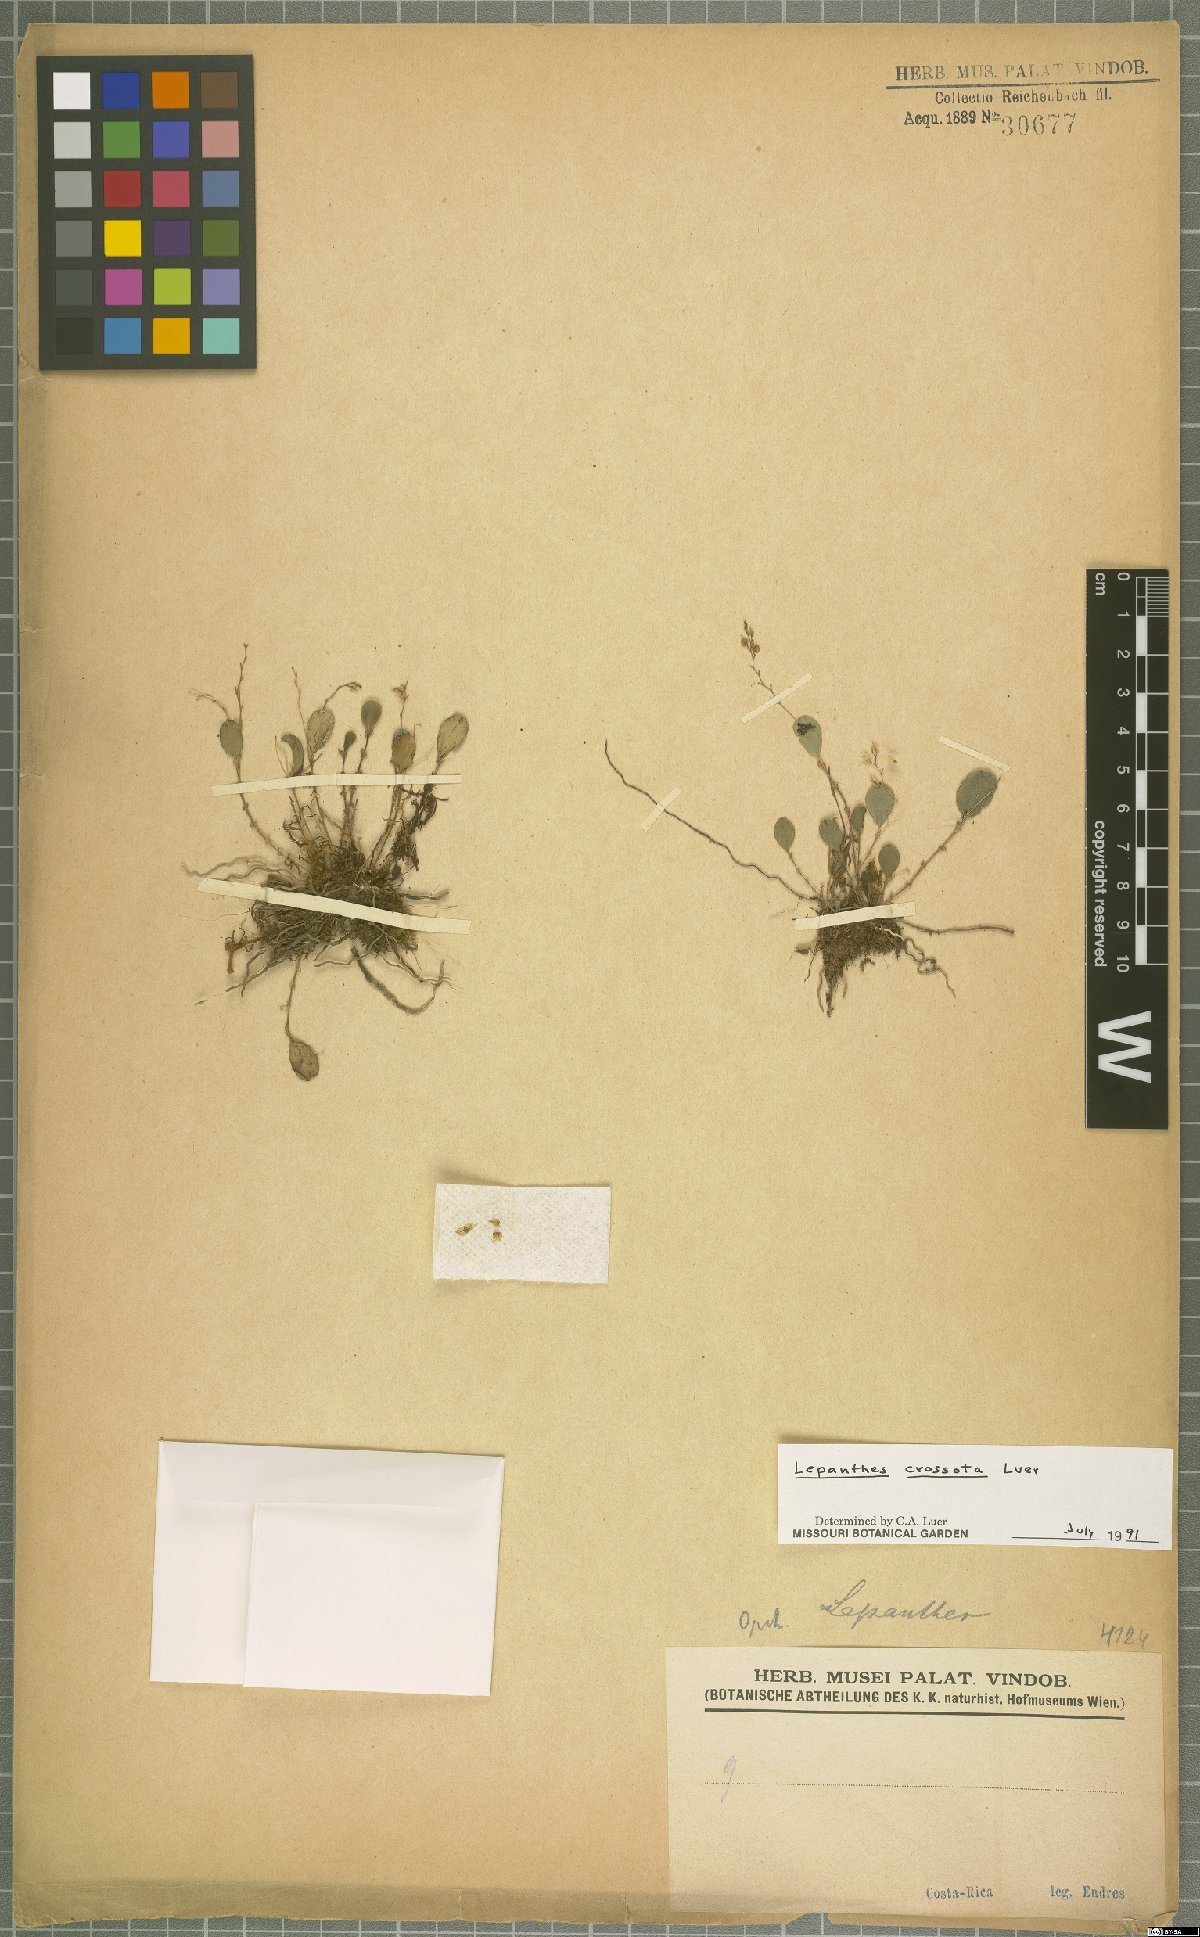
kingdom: Plantae
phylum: Tracheophyta
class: Liliopsida
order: Asparagales
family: Orchidaceae
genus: Lepanthes
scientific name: Lepanthes jimenezii
